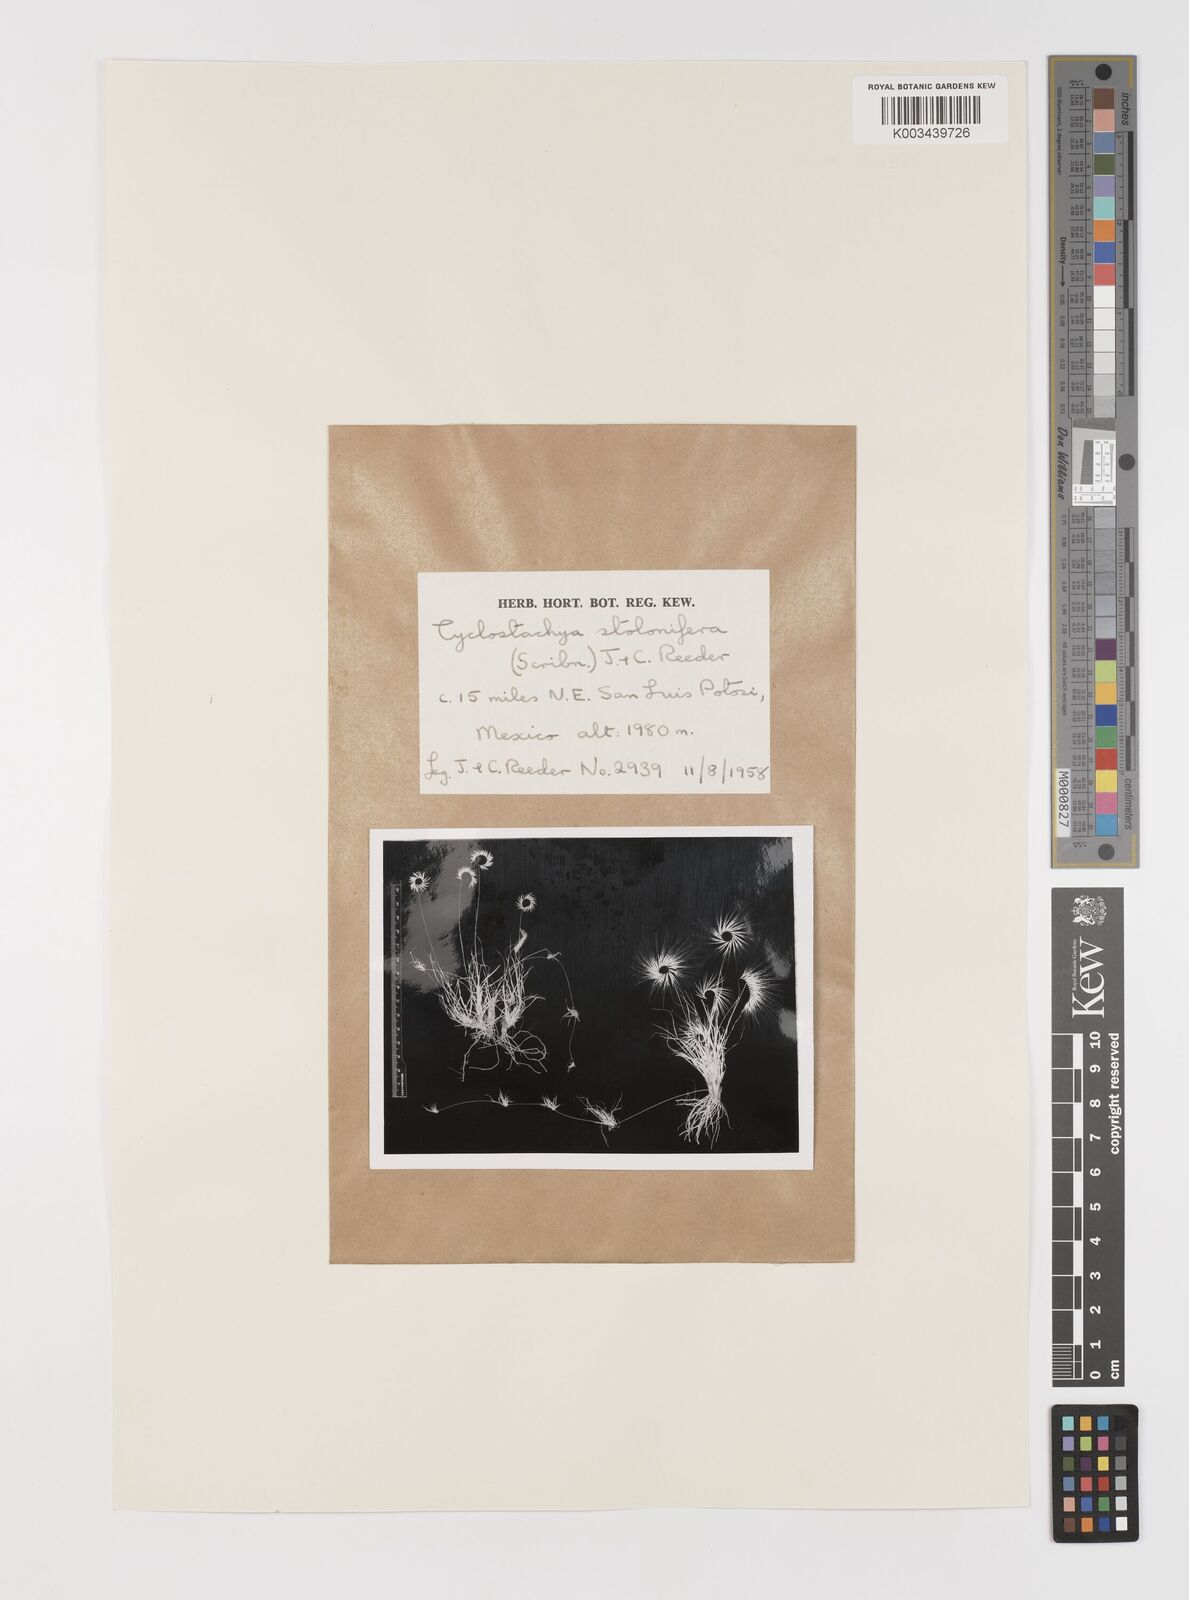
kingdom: Plantae
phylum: Tracheophyta
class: Liliopsida
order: Poales
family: Poaceae
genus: Bouteloua
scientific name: Bouteloua stolonifera
